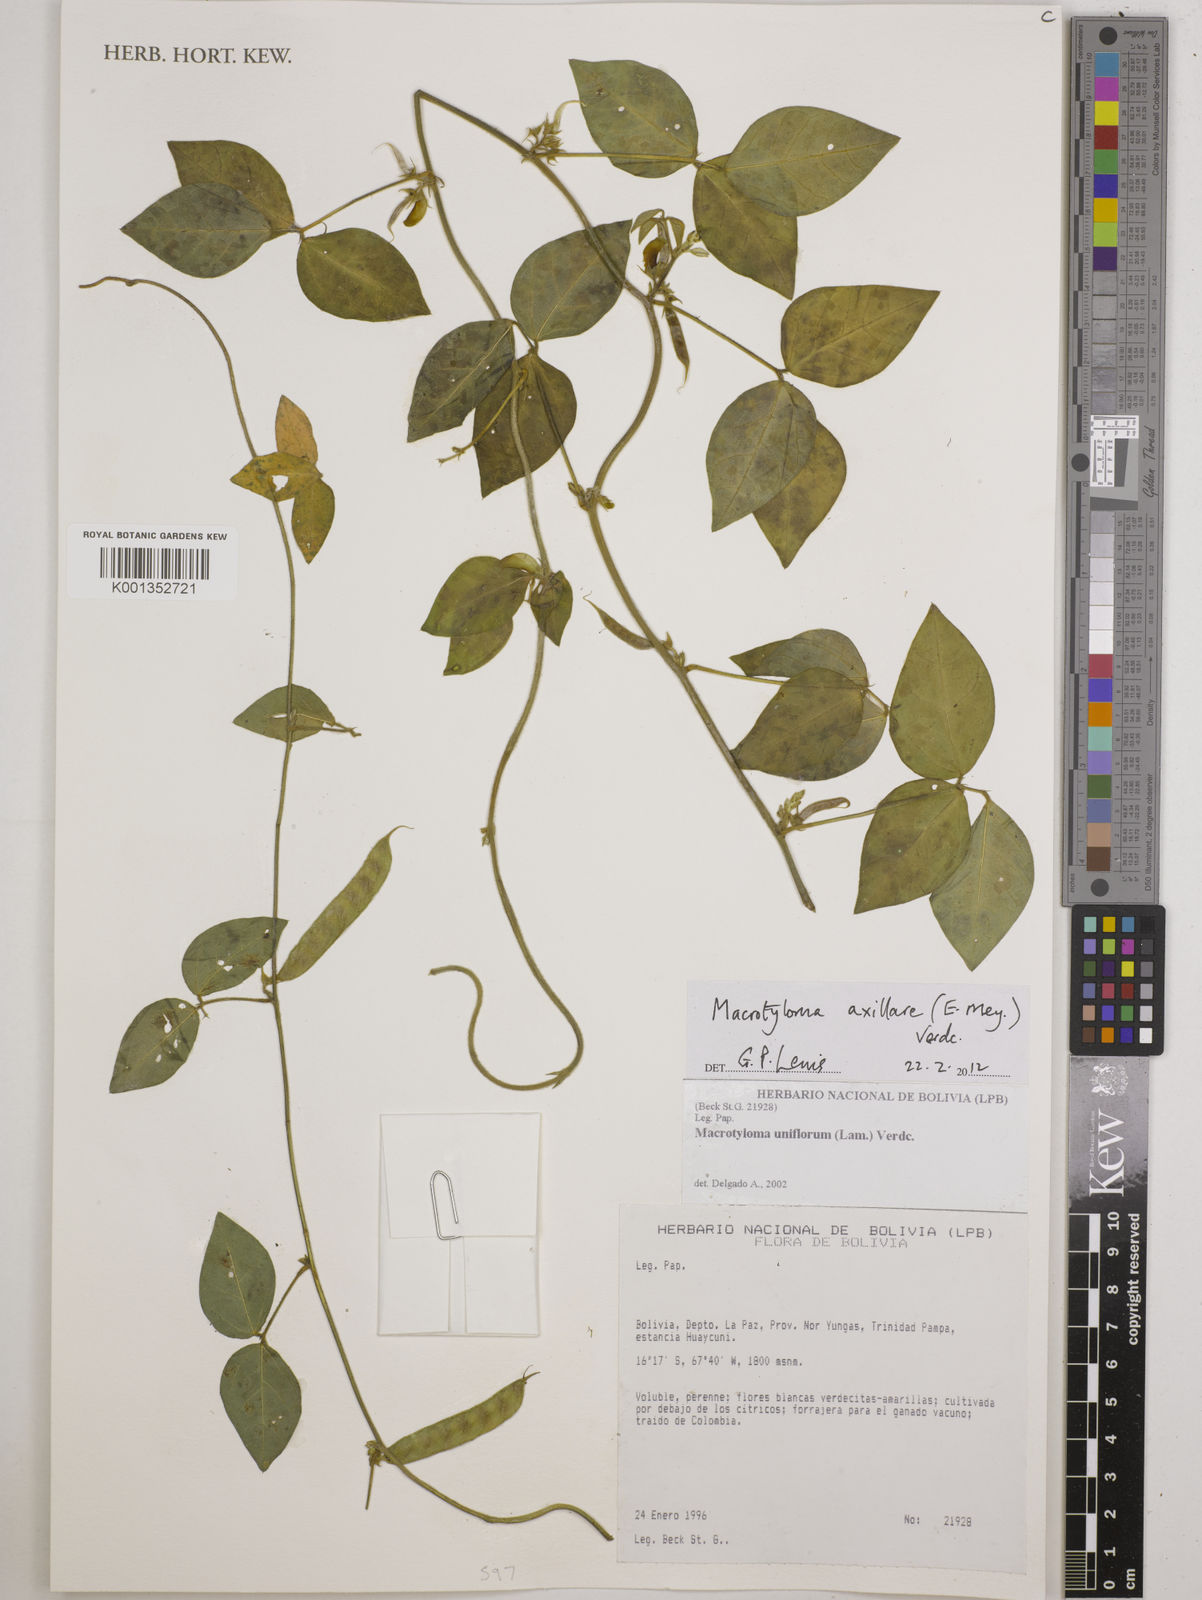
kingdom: Plantae
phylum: Tracheophyta
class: Magnoliopsida
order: Fabales
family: Fabaceae
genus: Macrotyloma
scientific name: Macrotyloma axillare
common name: Perennial horsegram
